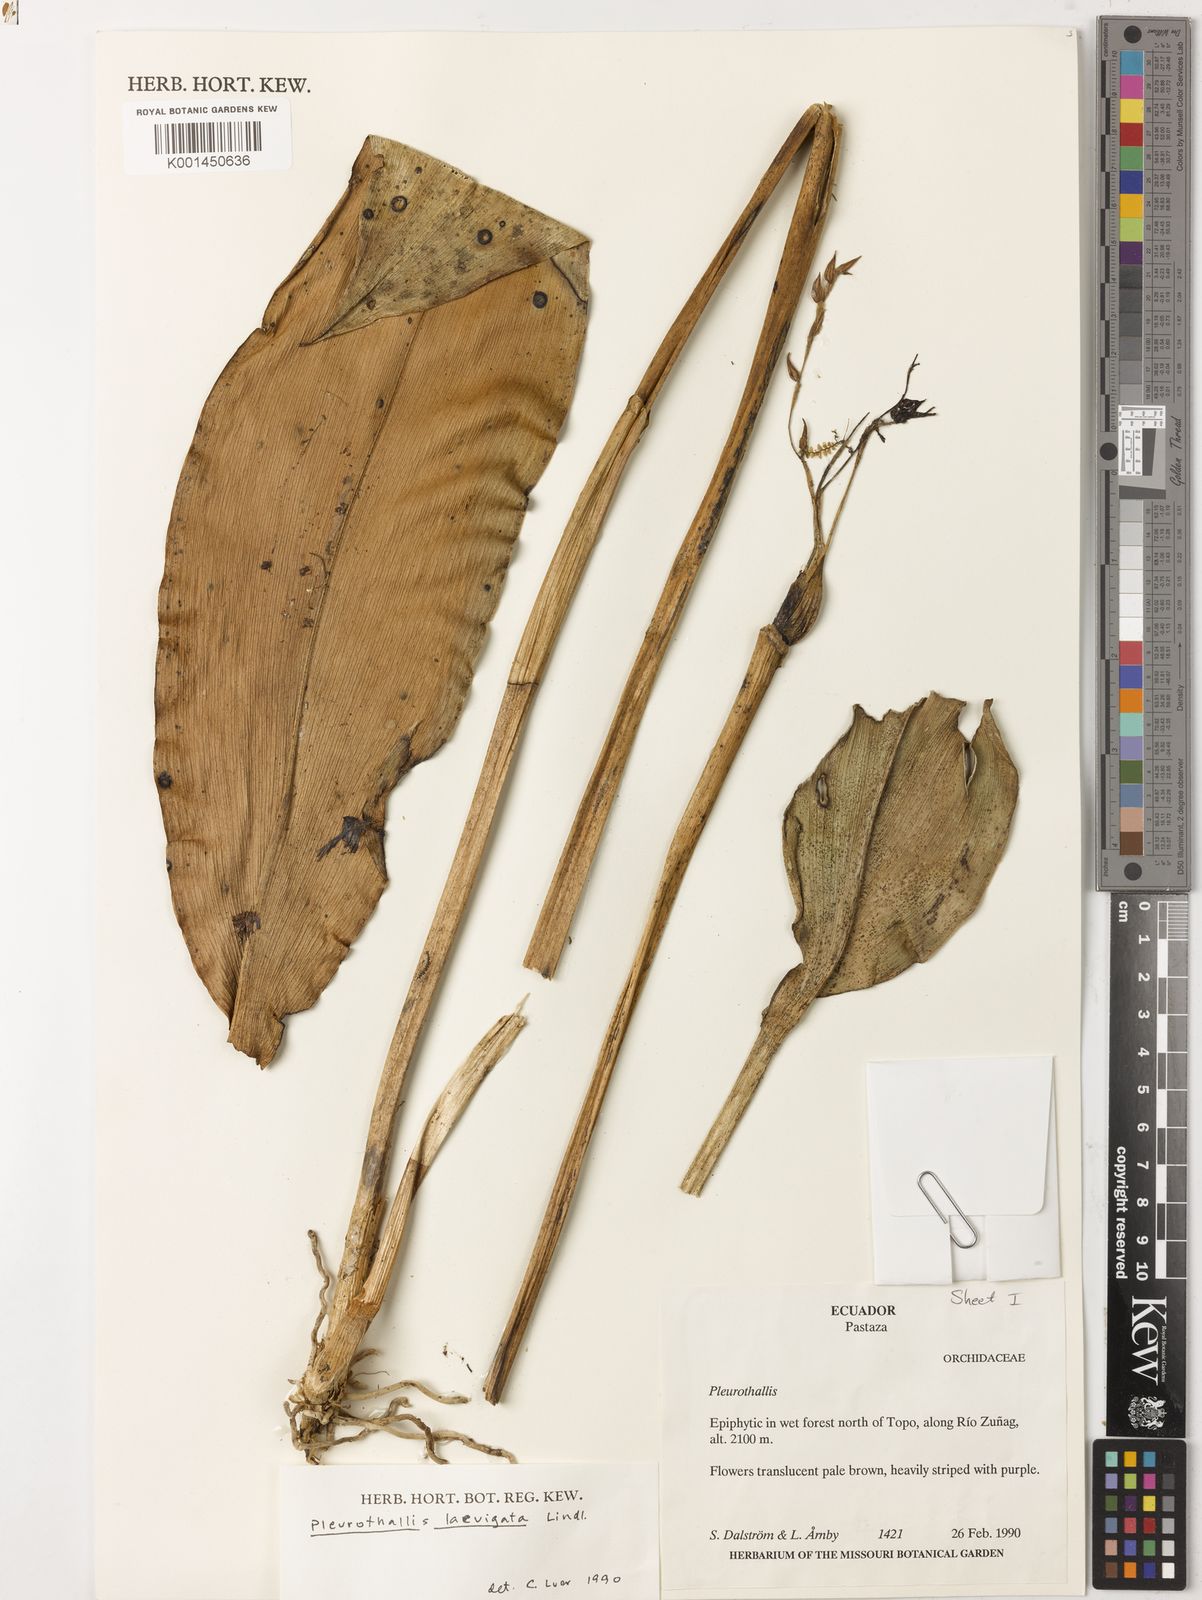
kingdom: Plantae
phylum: Tracheophyta
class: Liliopsida
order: Asparagales
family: Orchidaceae
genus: Stelis
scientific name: Stelis laevigata
